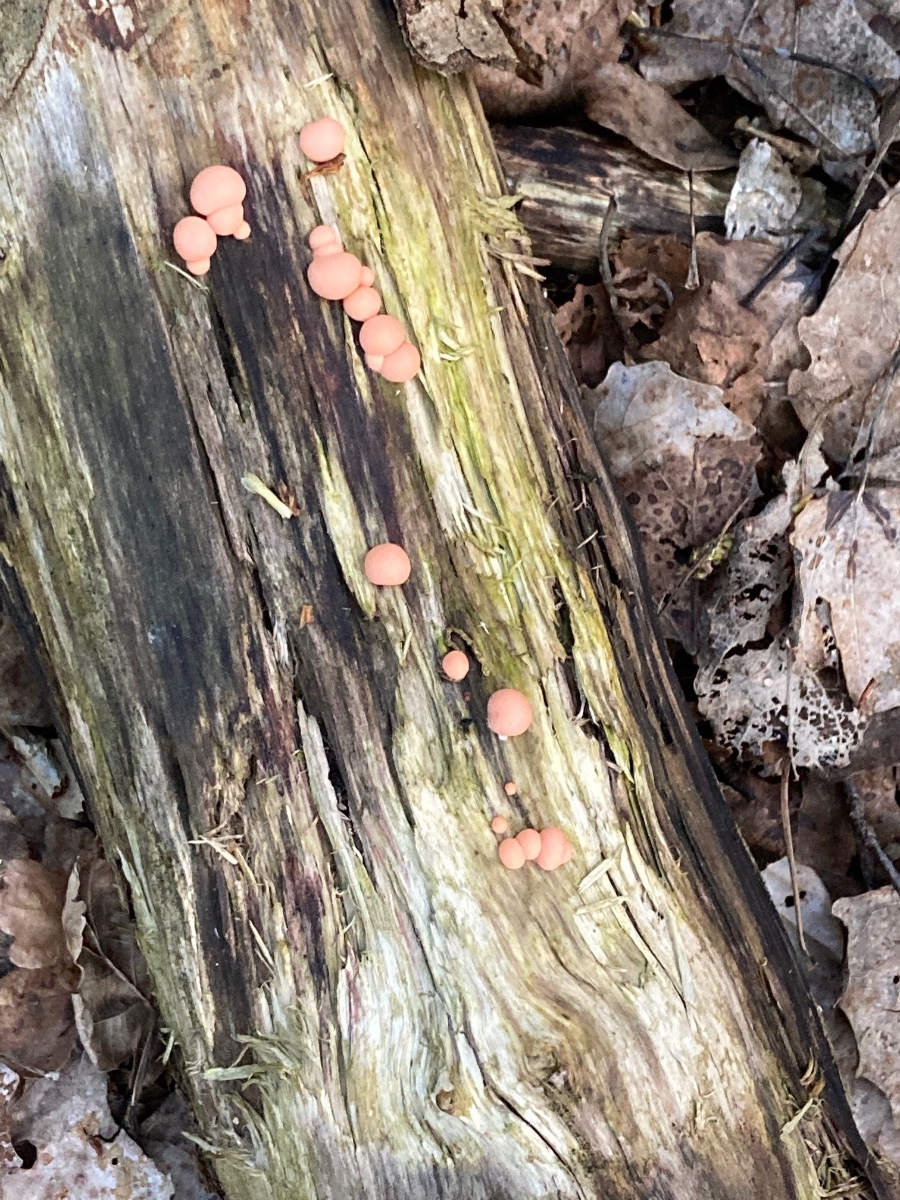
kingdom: Protozoa
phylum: Mycetozoa
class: Myxomycetes
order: Cribrariales
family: Tubiferaceae
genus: Lycogala
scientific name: Lycogala epidendrum
